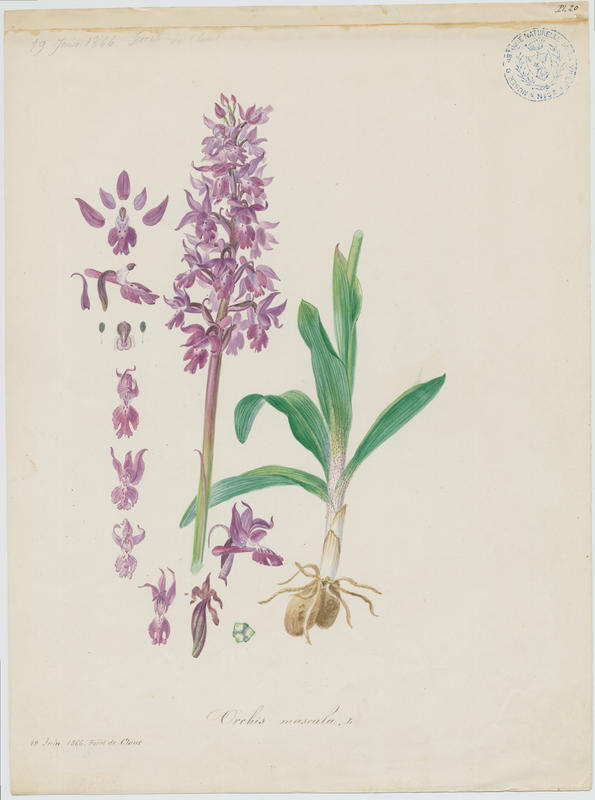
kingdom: Plantae
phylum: Tracheophyta
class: Liliopsida
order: Asparagales
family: Orchidaceae
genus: Orchis
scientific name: Orchis mascula
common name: Early-purple orchid
